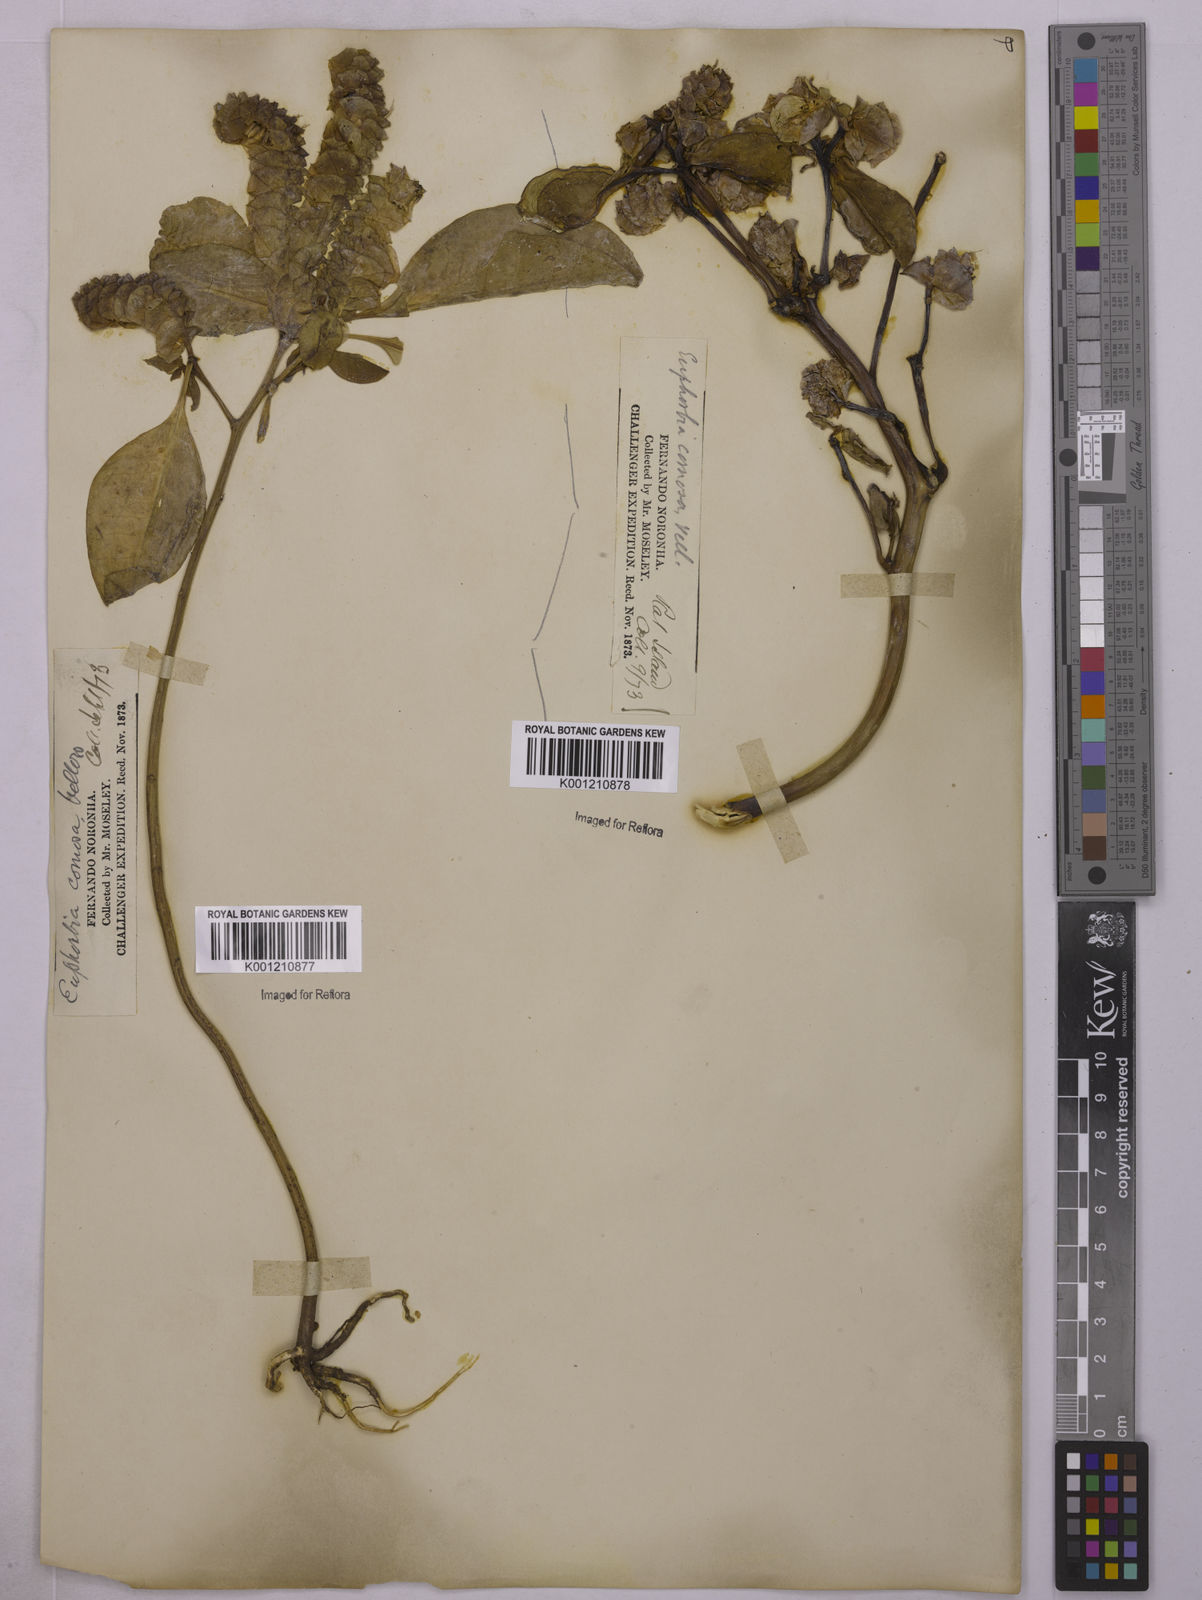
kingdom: Plantae
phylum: Tracheophyta
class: Magnoliopsida
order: Malpighiales
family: Euphorbiaceae
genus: Euphorbia
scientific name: Euphorbia comosa
